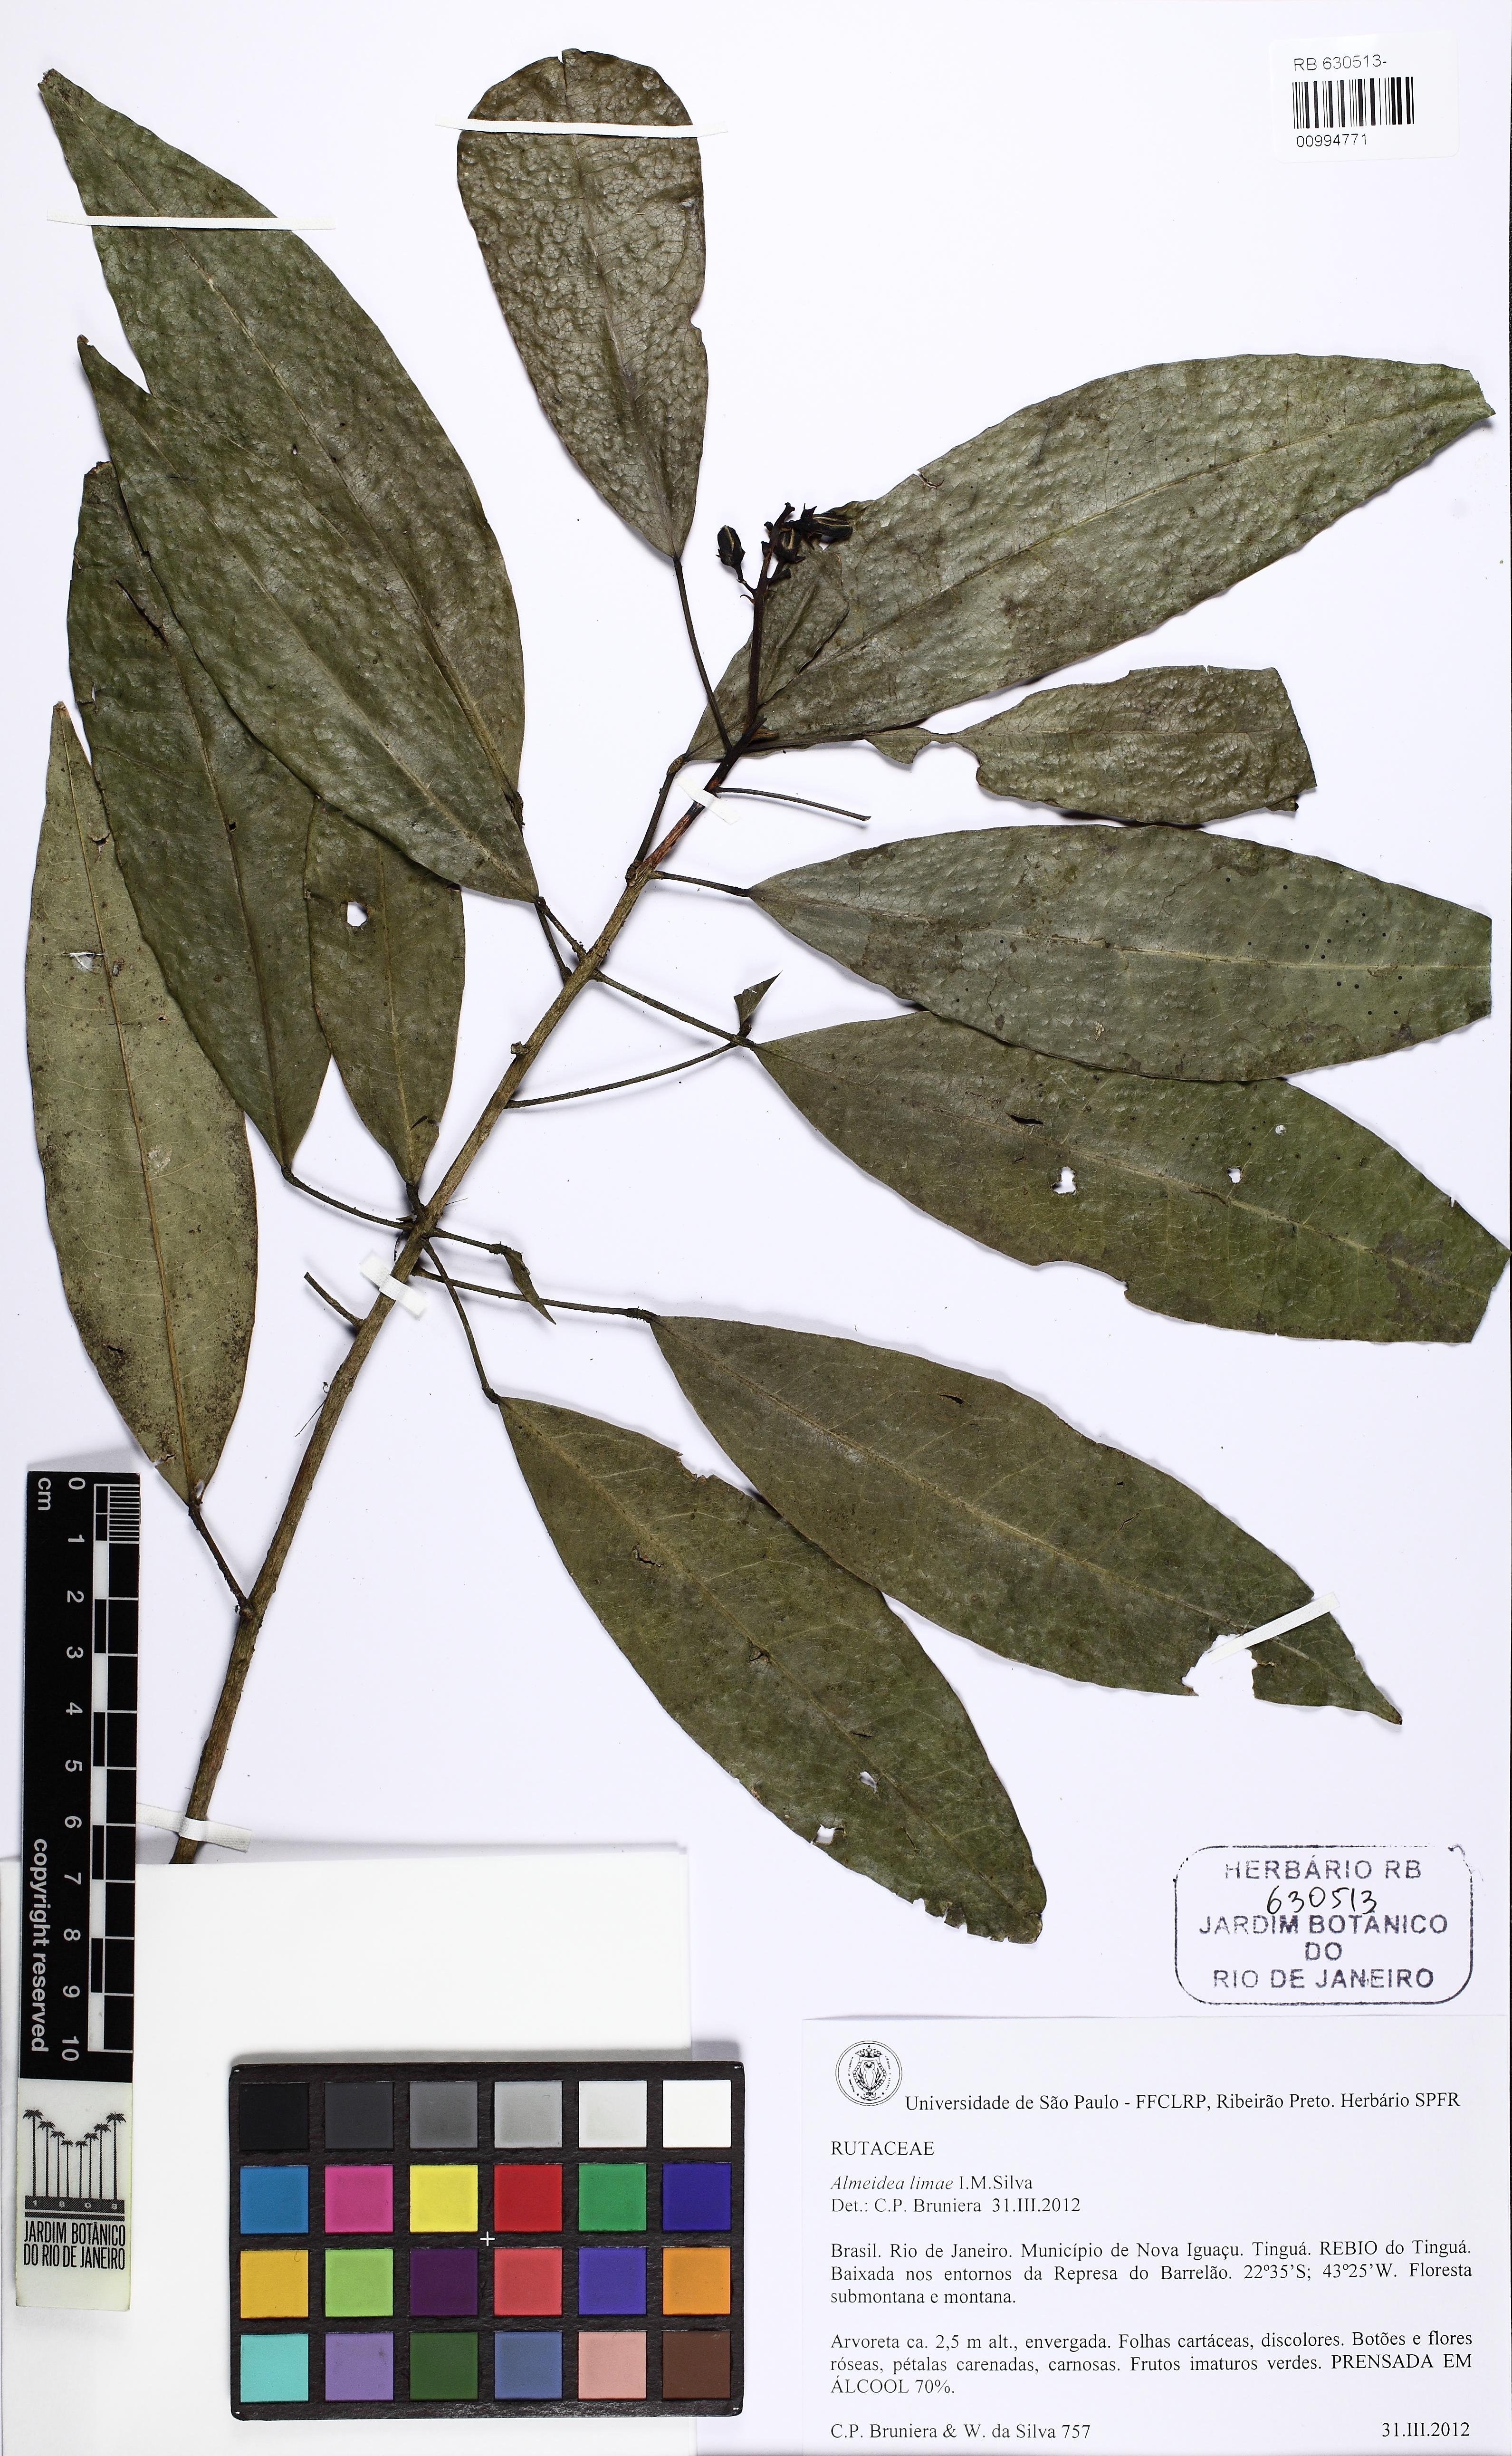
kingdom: Plantae
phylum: Tracheophyta
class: Magnoliopsida
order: Sapindales
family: Rutaceae
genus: Conchocarpus
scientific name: Conchocarpus limae
